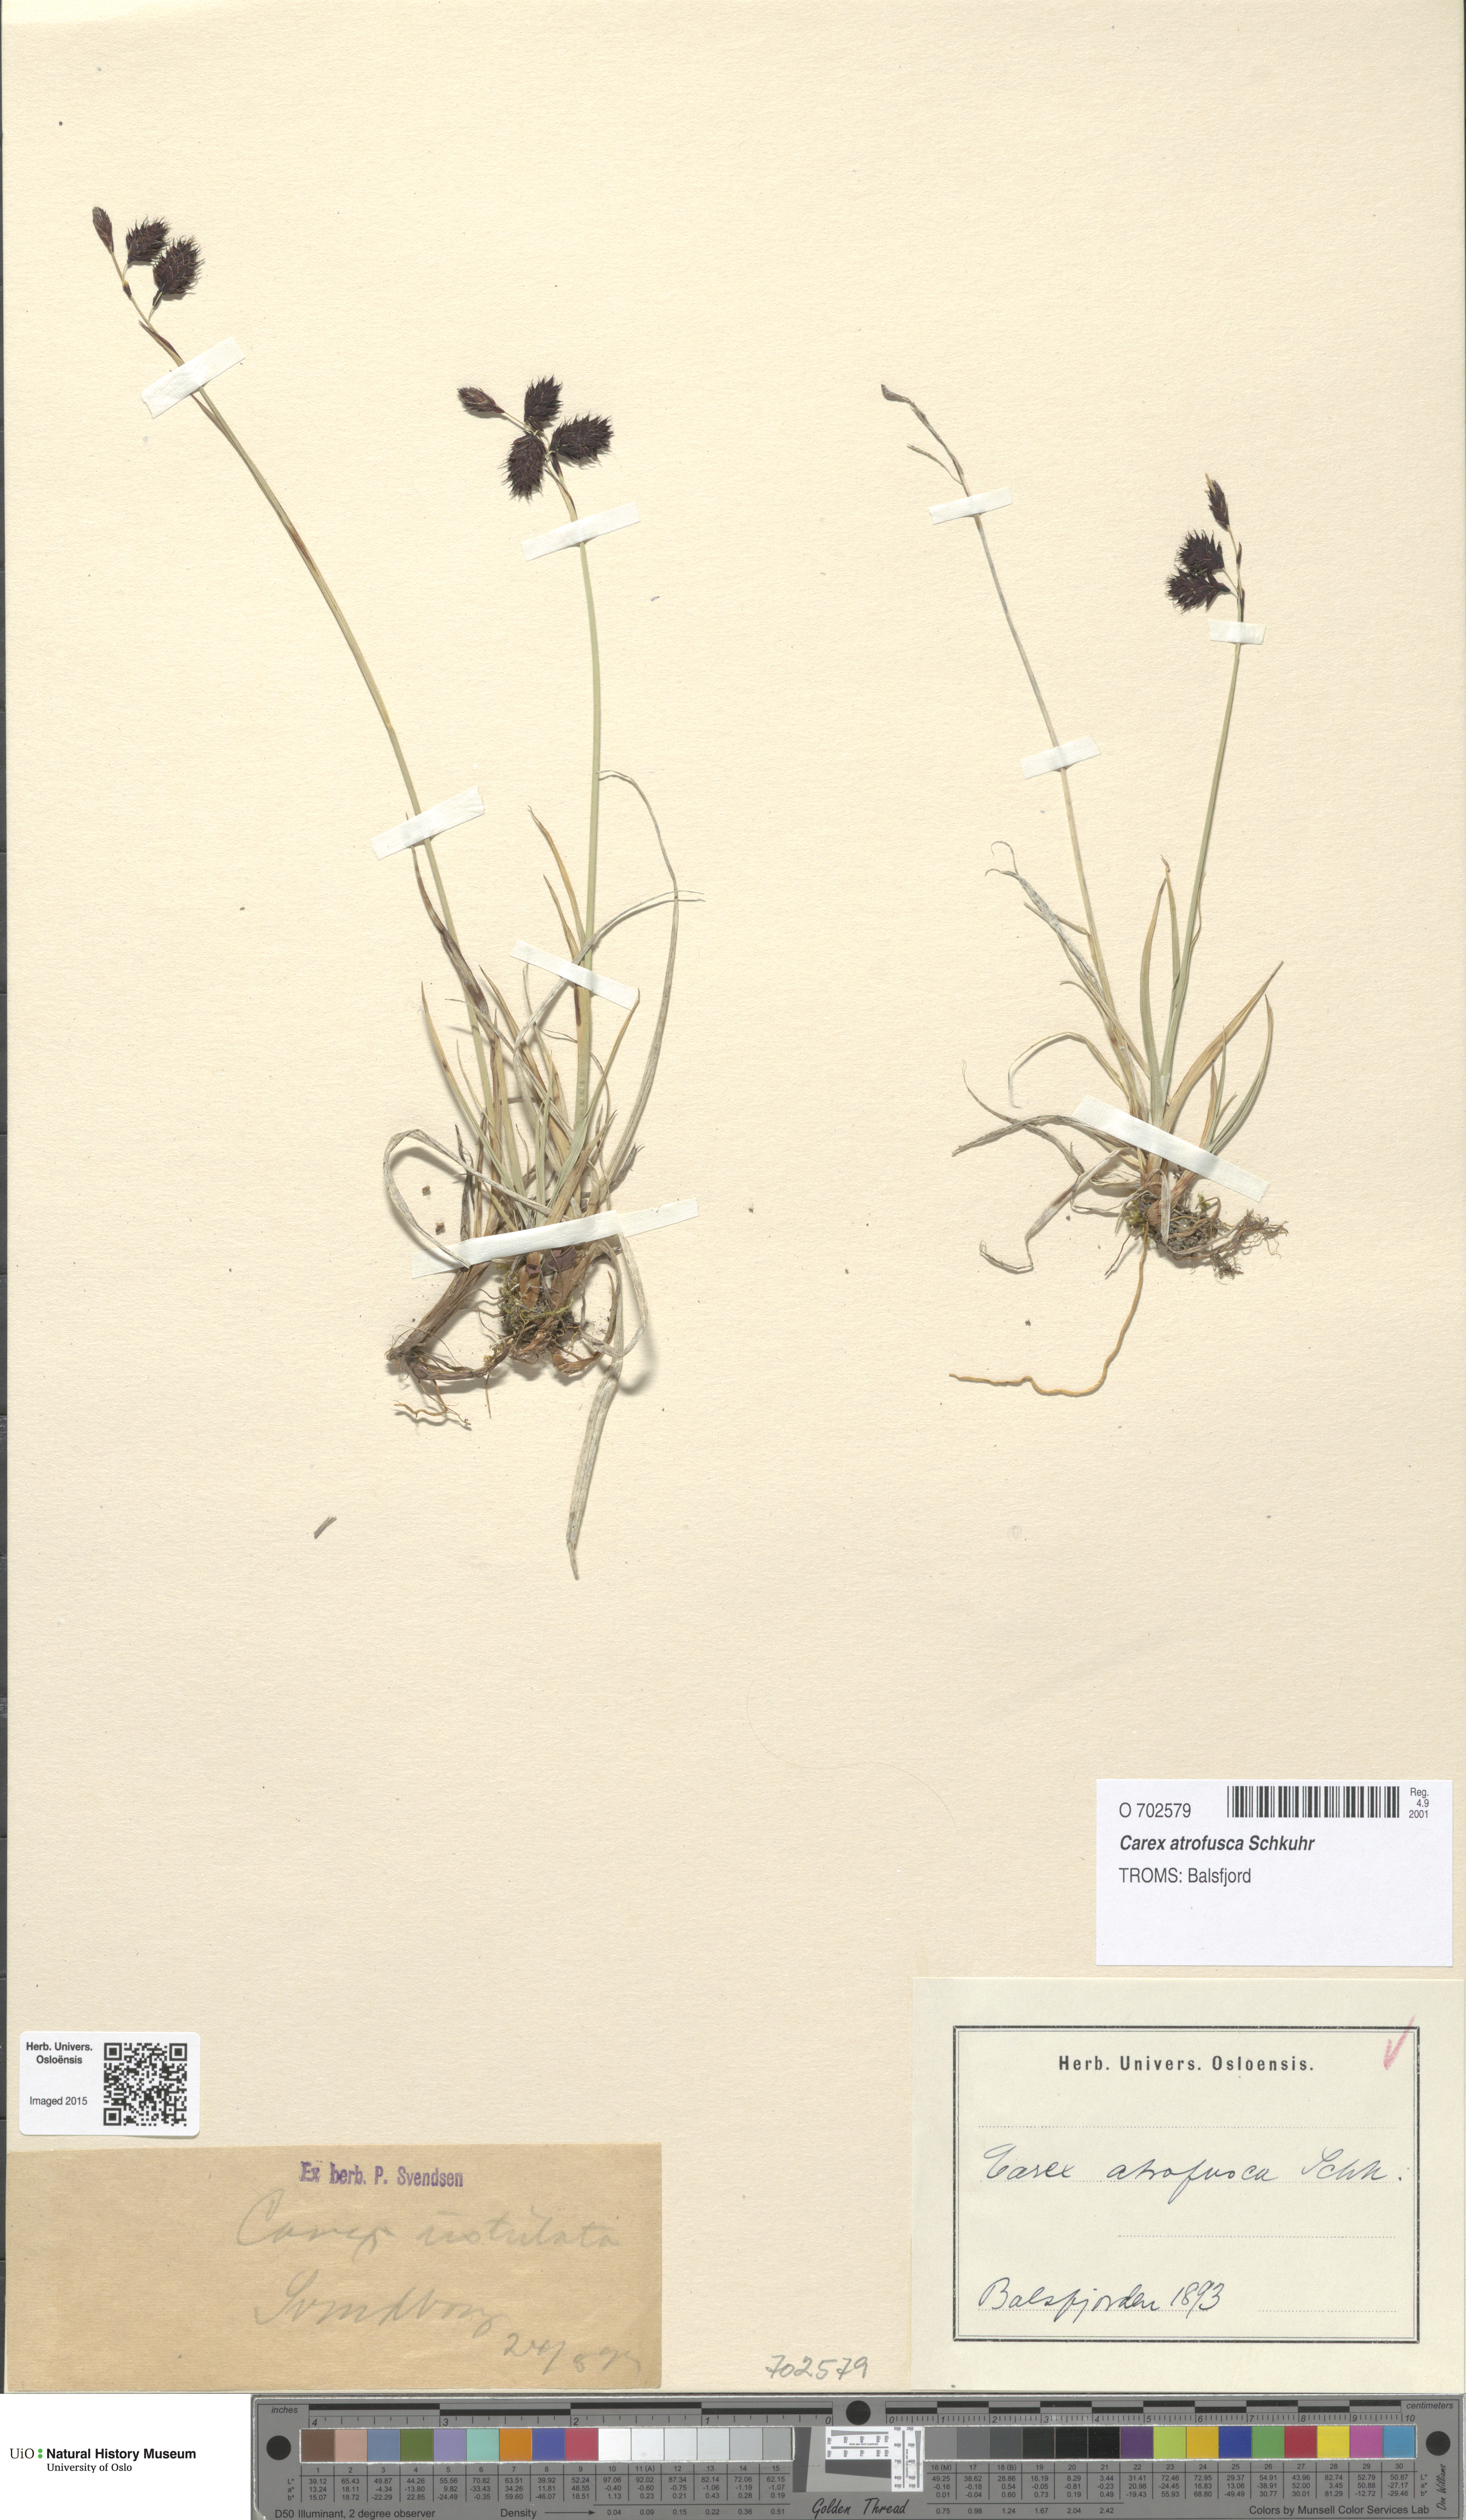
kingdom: Plantae
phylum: Tracheophyta
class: Liliopsida
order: Poales
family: Cyperaceae
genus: Carex
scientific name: Carex atrofusca
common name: Scorched alpine-sedge
